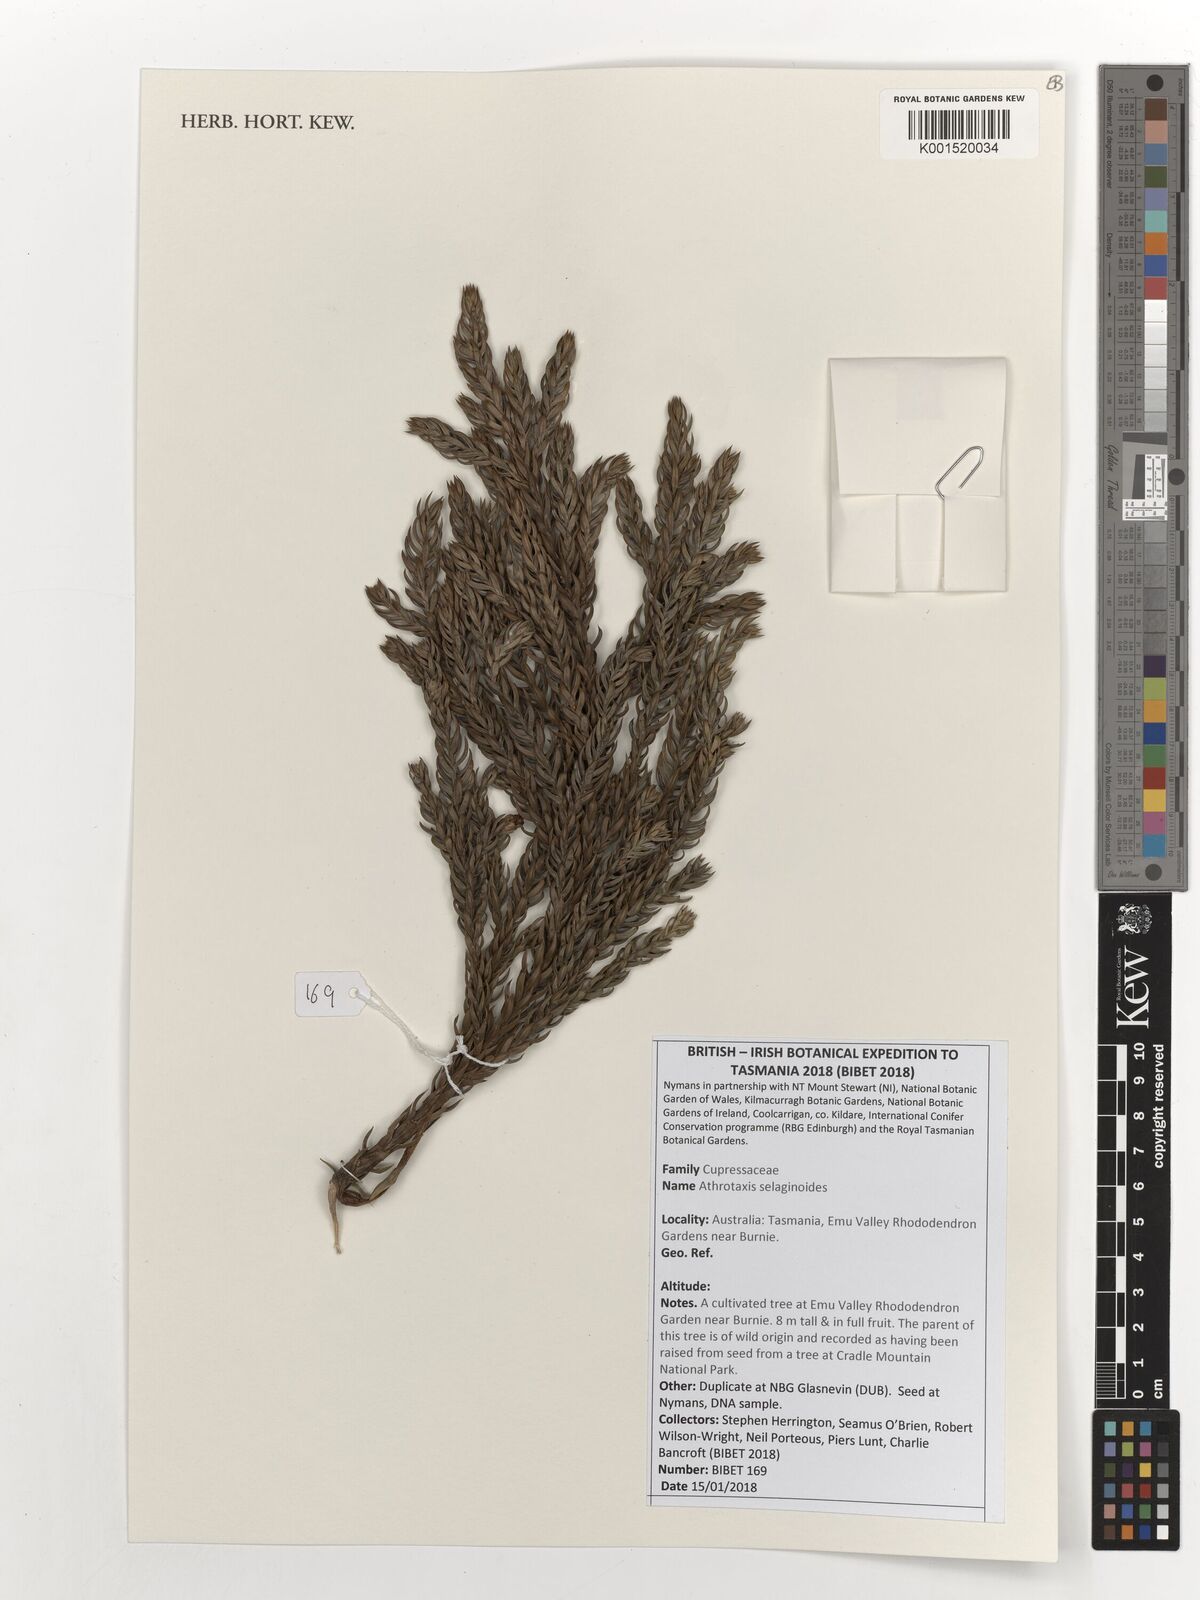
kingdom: Plantae
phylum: Tracheophyta
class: Pinopsida
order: Pinales
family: Cupressaceae
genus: Athrotaxis
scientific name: Athrotaxis selaginoides
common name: King william pine
